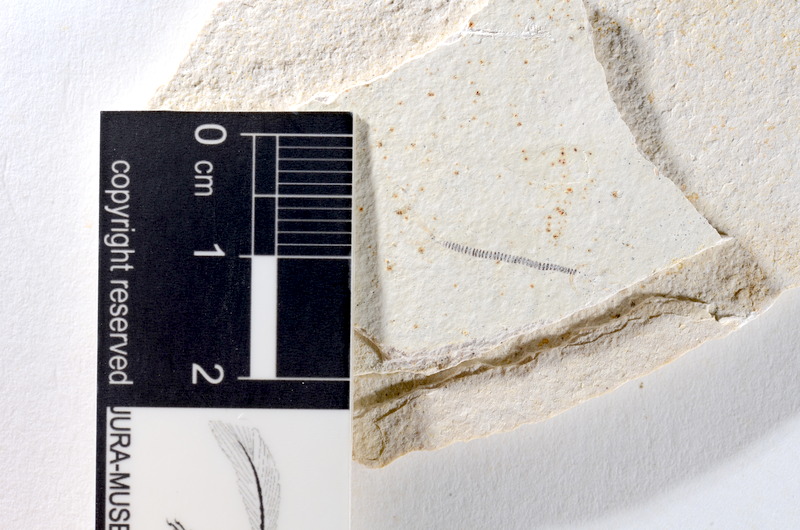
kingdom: Animalia
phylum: Chordata
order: Salmoniformes
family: Orthogonikleithridae
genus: Orthogonikleithrus
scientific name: Orthogonikleithrus hoelli
